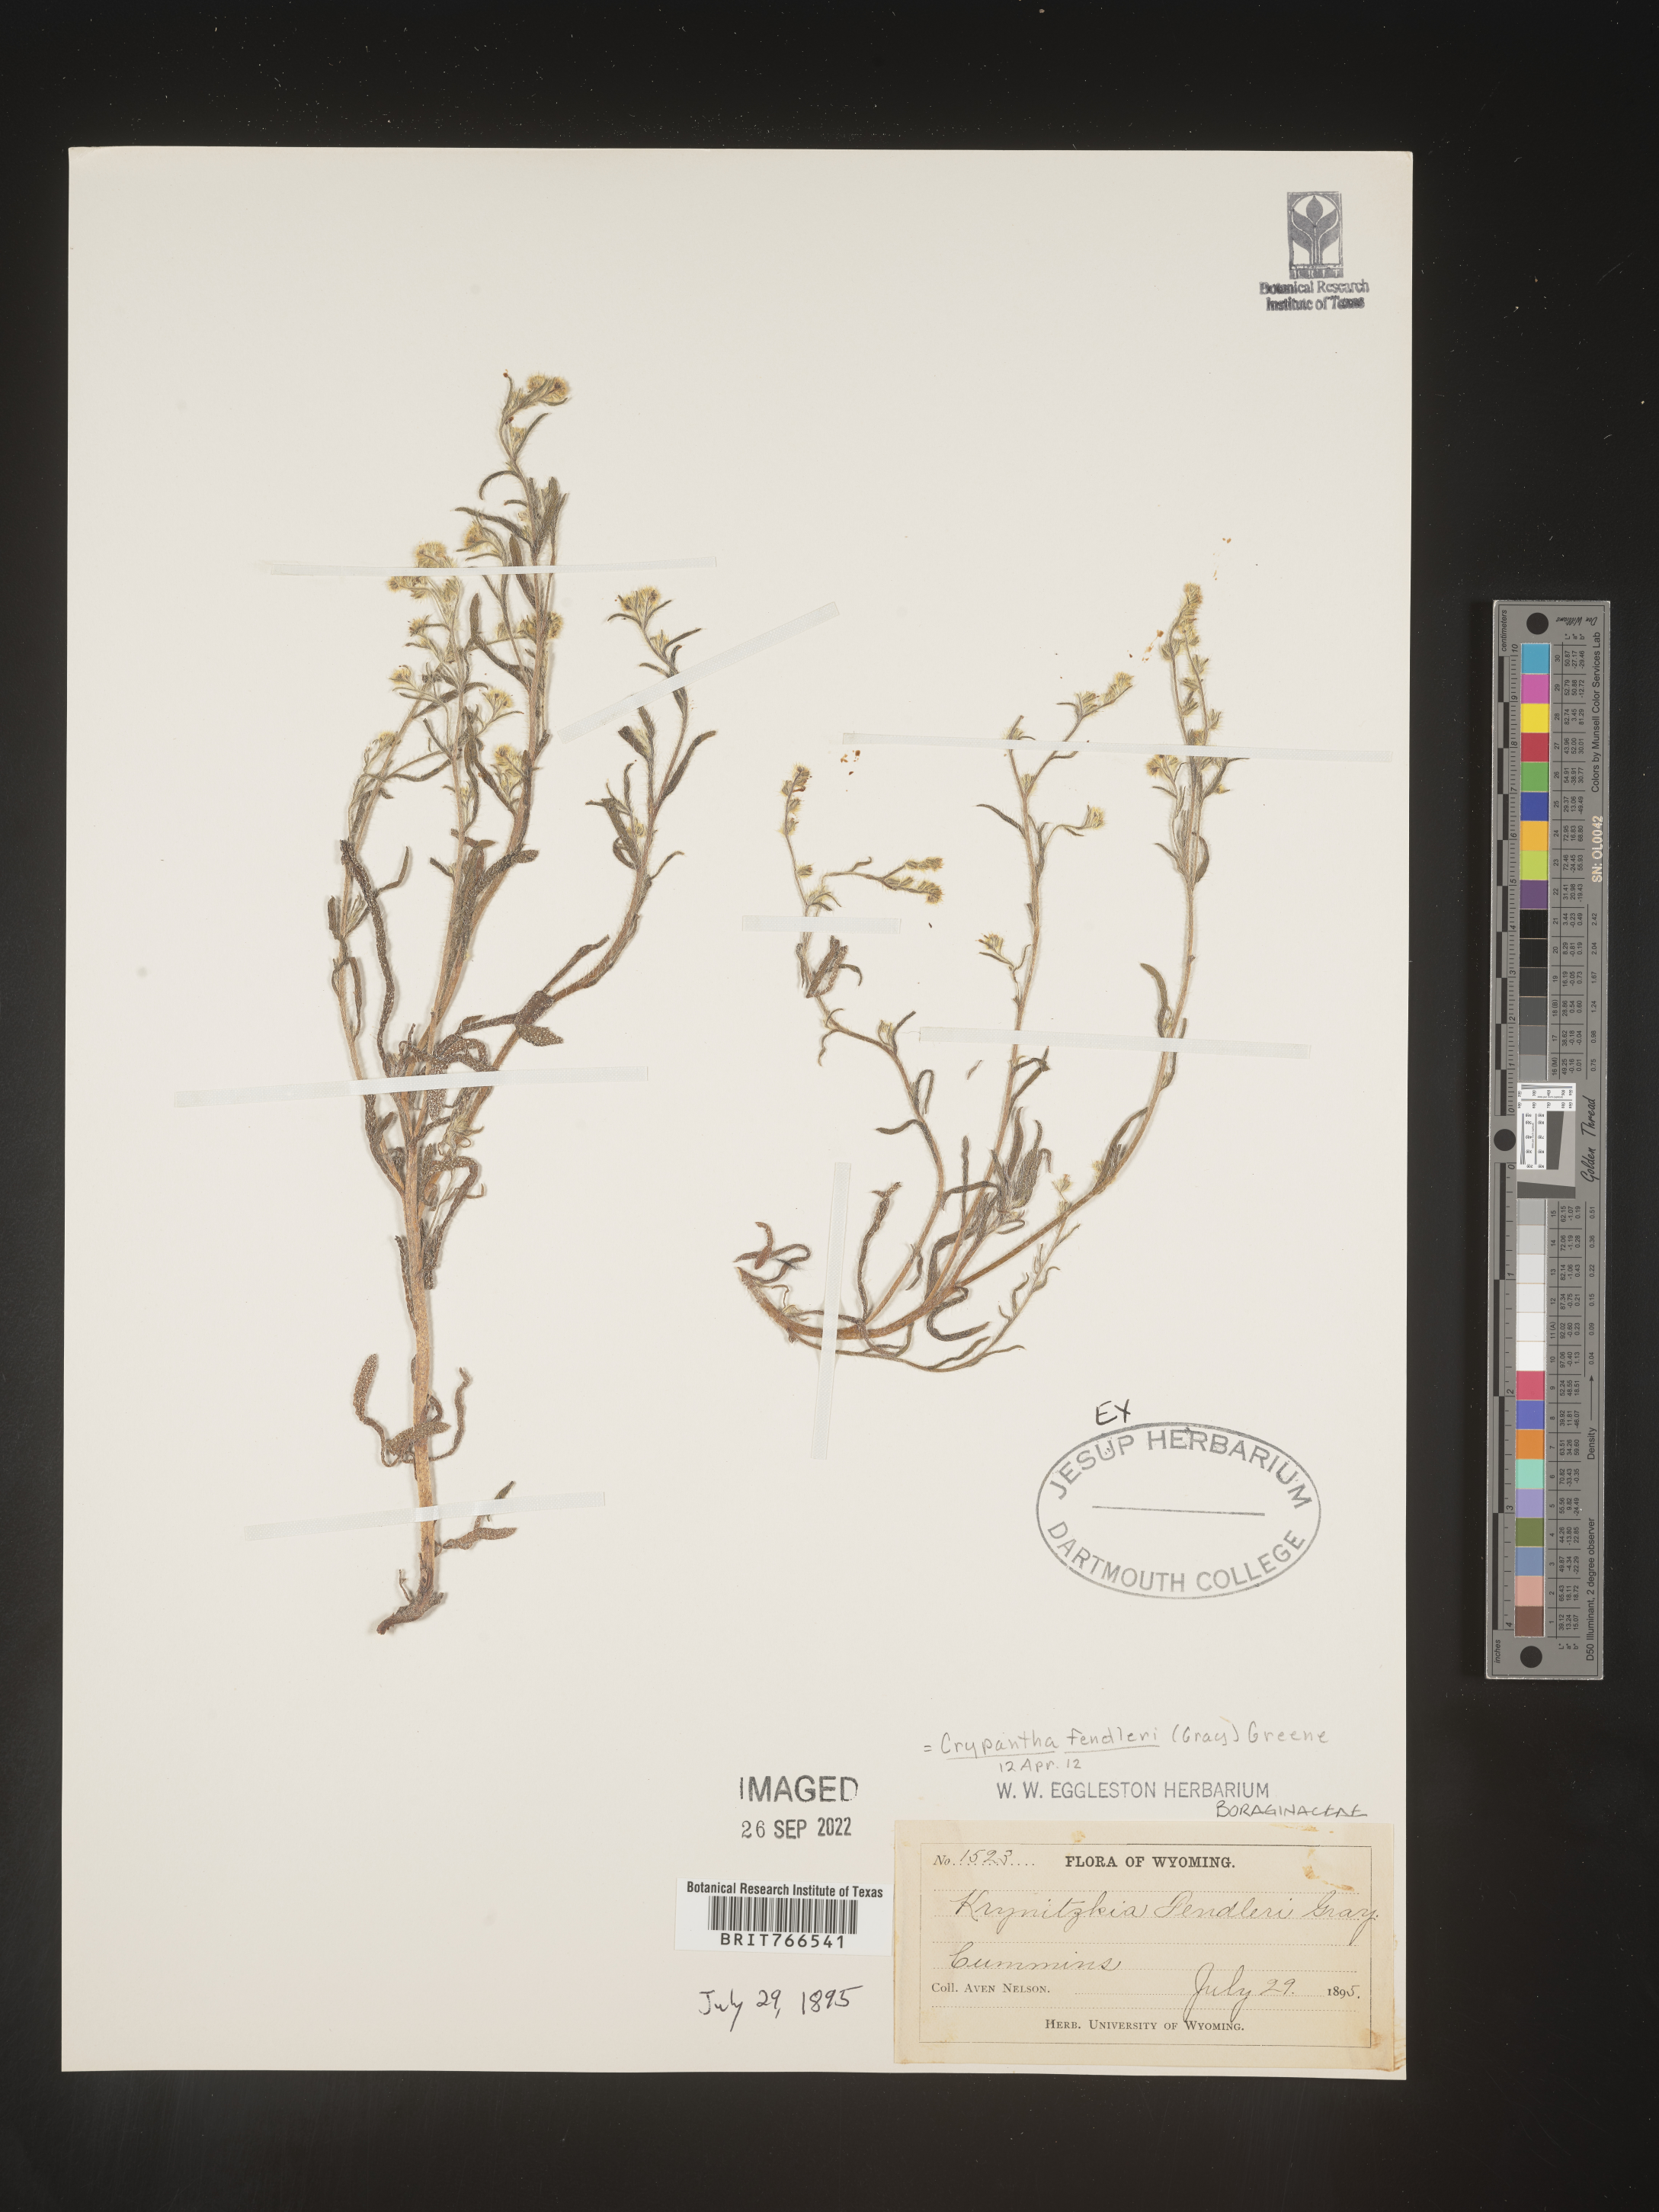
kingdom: Plantae
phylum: Tracheophyta
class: Magnoliopsida
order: Boraginales
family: Boraginaceae
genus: Cryptantha
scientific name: Cryptantha fendleri
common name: Sand-dune cryptantha
